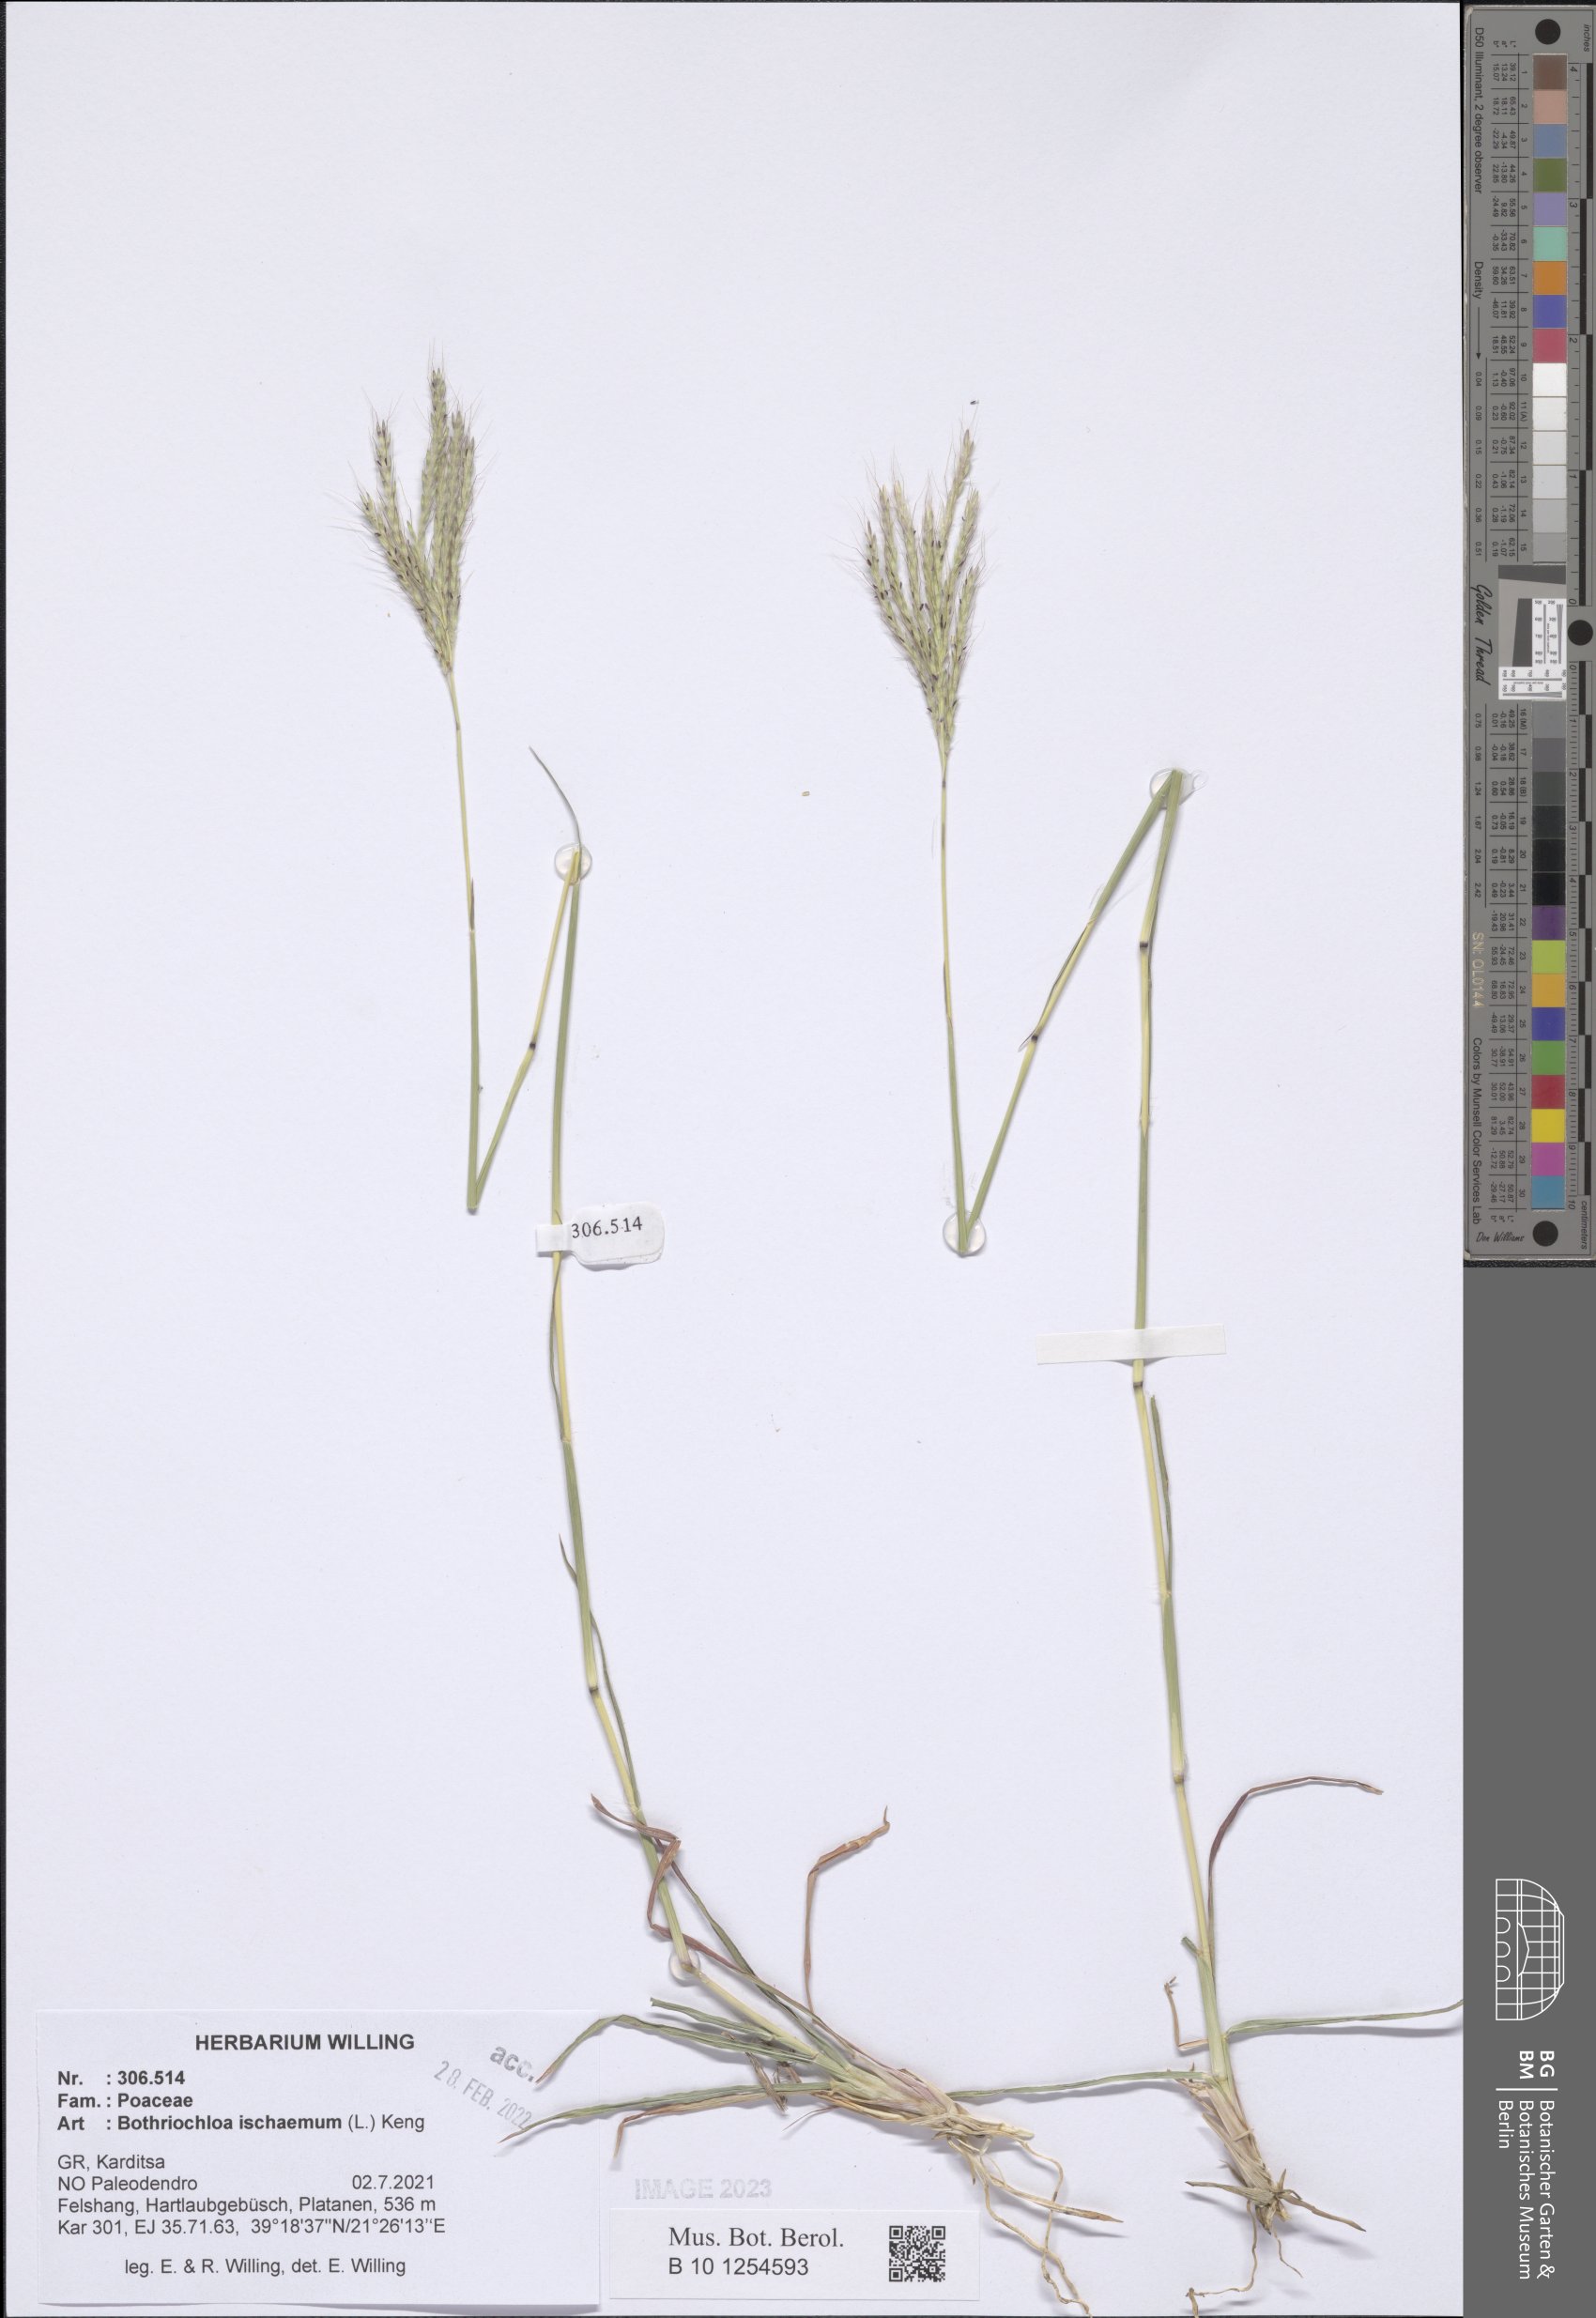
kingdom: Plantae
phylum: Tracheophyta
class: Liliopsida
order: Poales
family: Poaceae
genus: Bothriochloa
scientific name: Bothriochloa ischaemum
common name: Yellow bluestem
